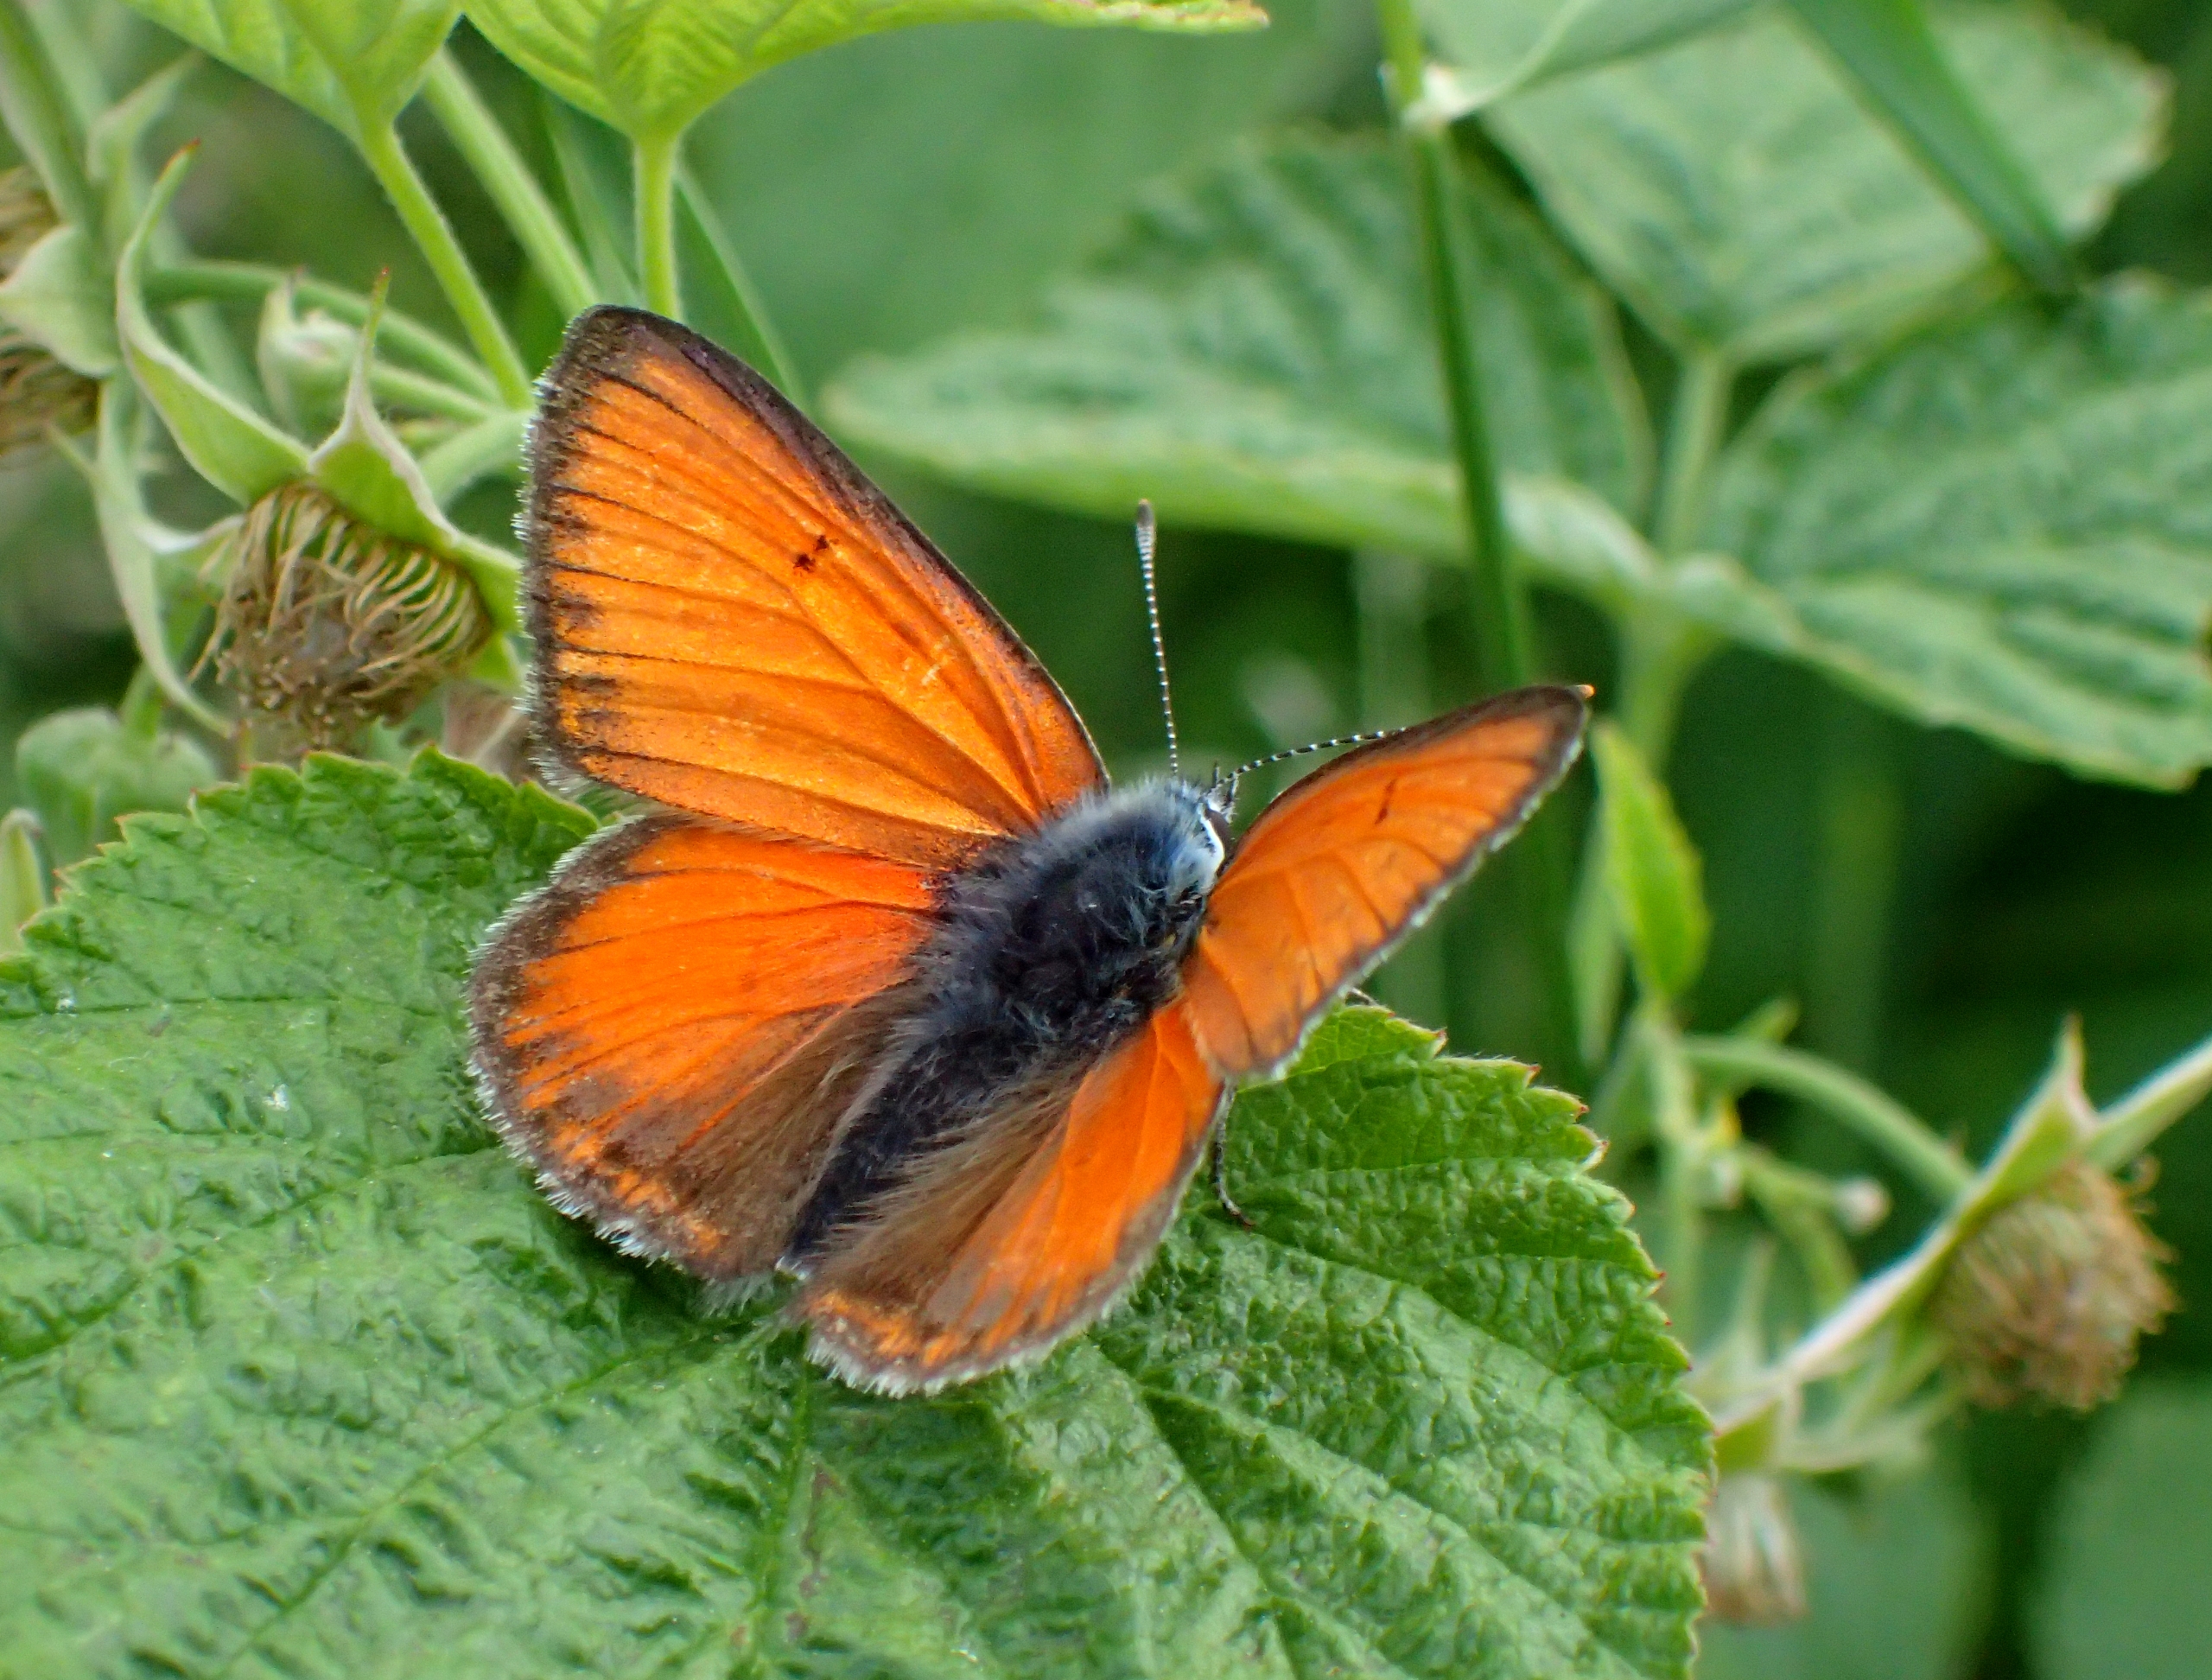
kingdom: Animalia
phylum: Arthropoda
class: Insecta
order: Lepidoptera
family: Lycaenidae
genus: Palaeochrysophanus
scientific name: Palaeochrysophanus hippothoe
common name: Violetrandet ildfugl
